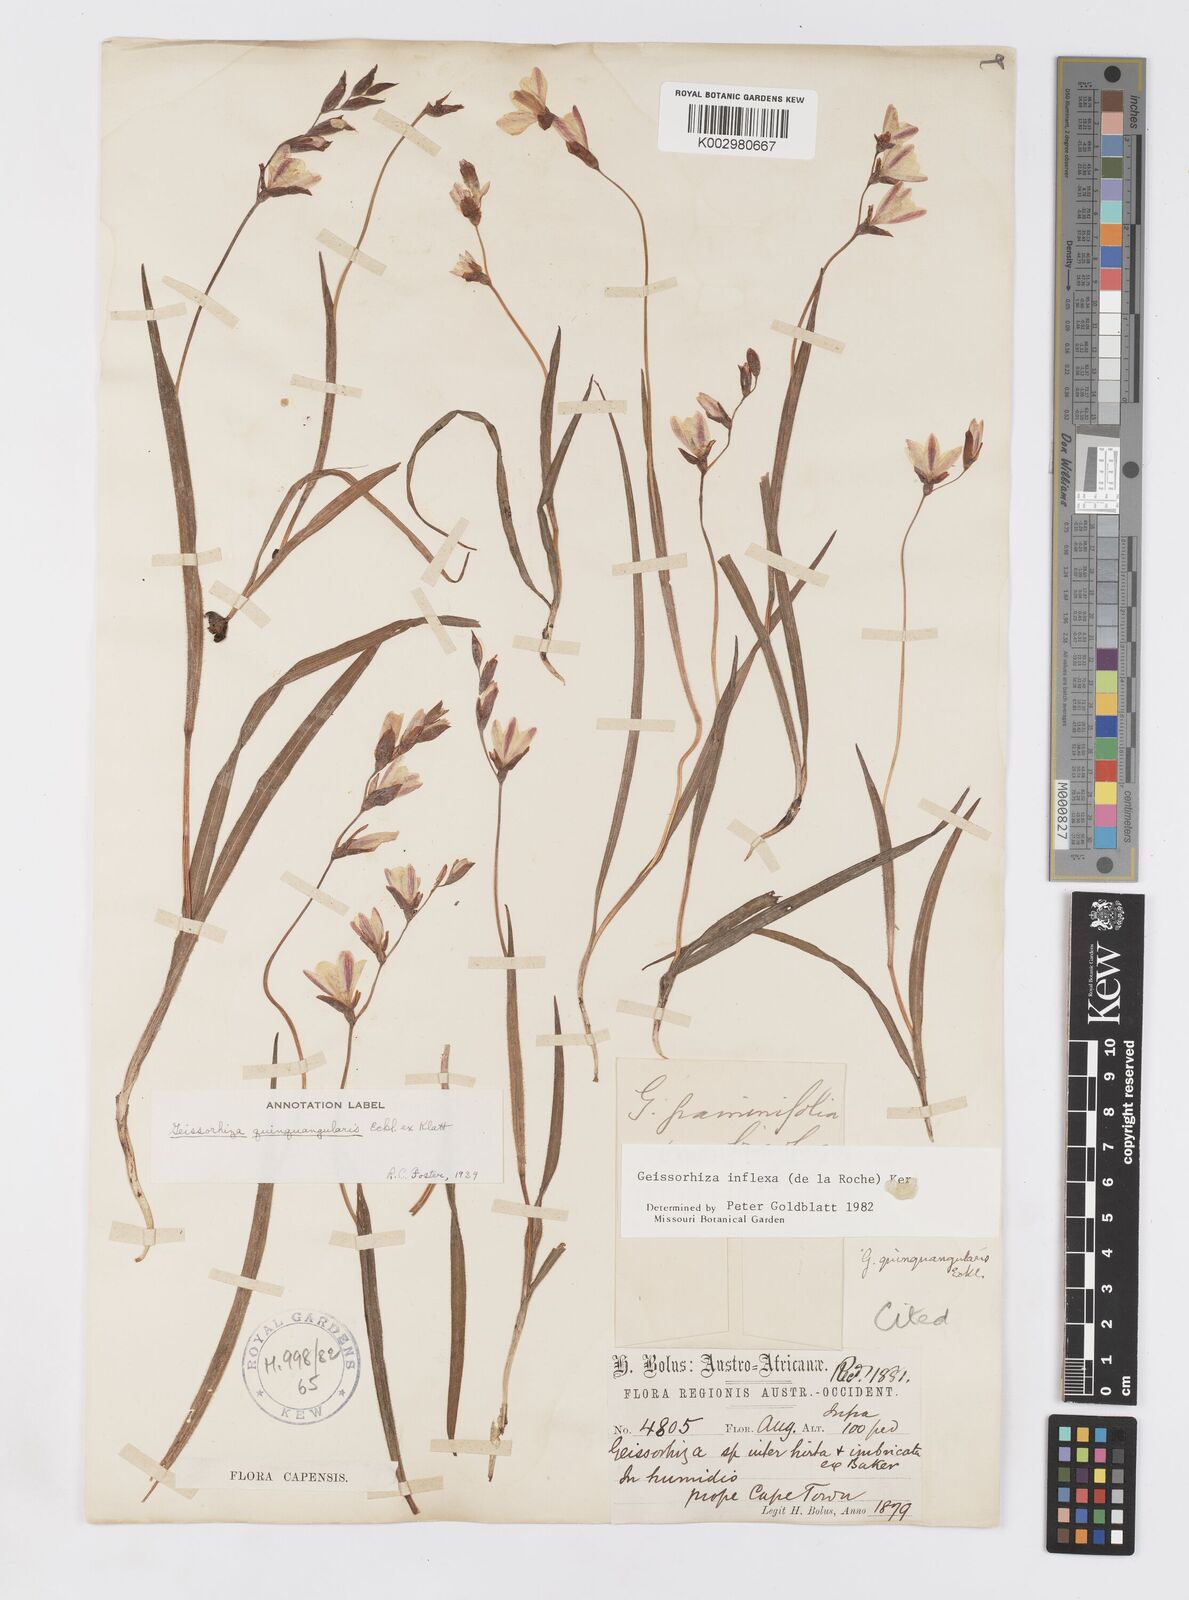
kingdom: Plantae
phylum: Tracheophyta
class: Liliopsida
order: Asparagales
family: Iridaceae
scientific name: Iridaceae
